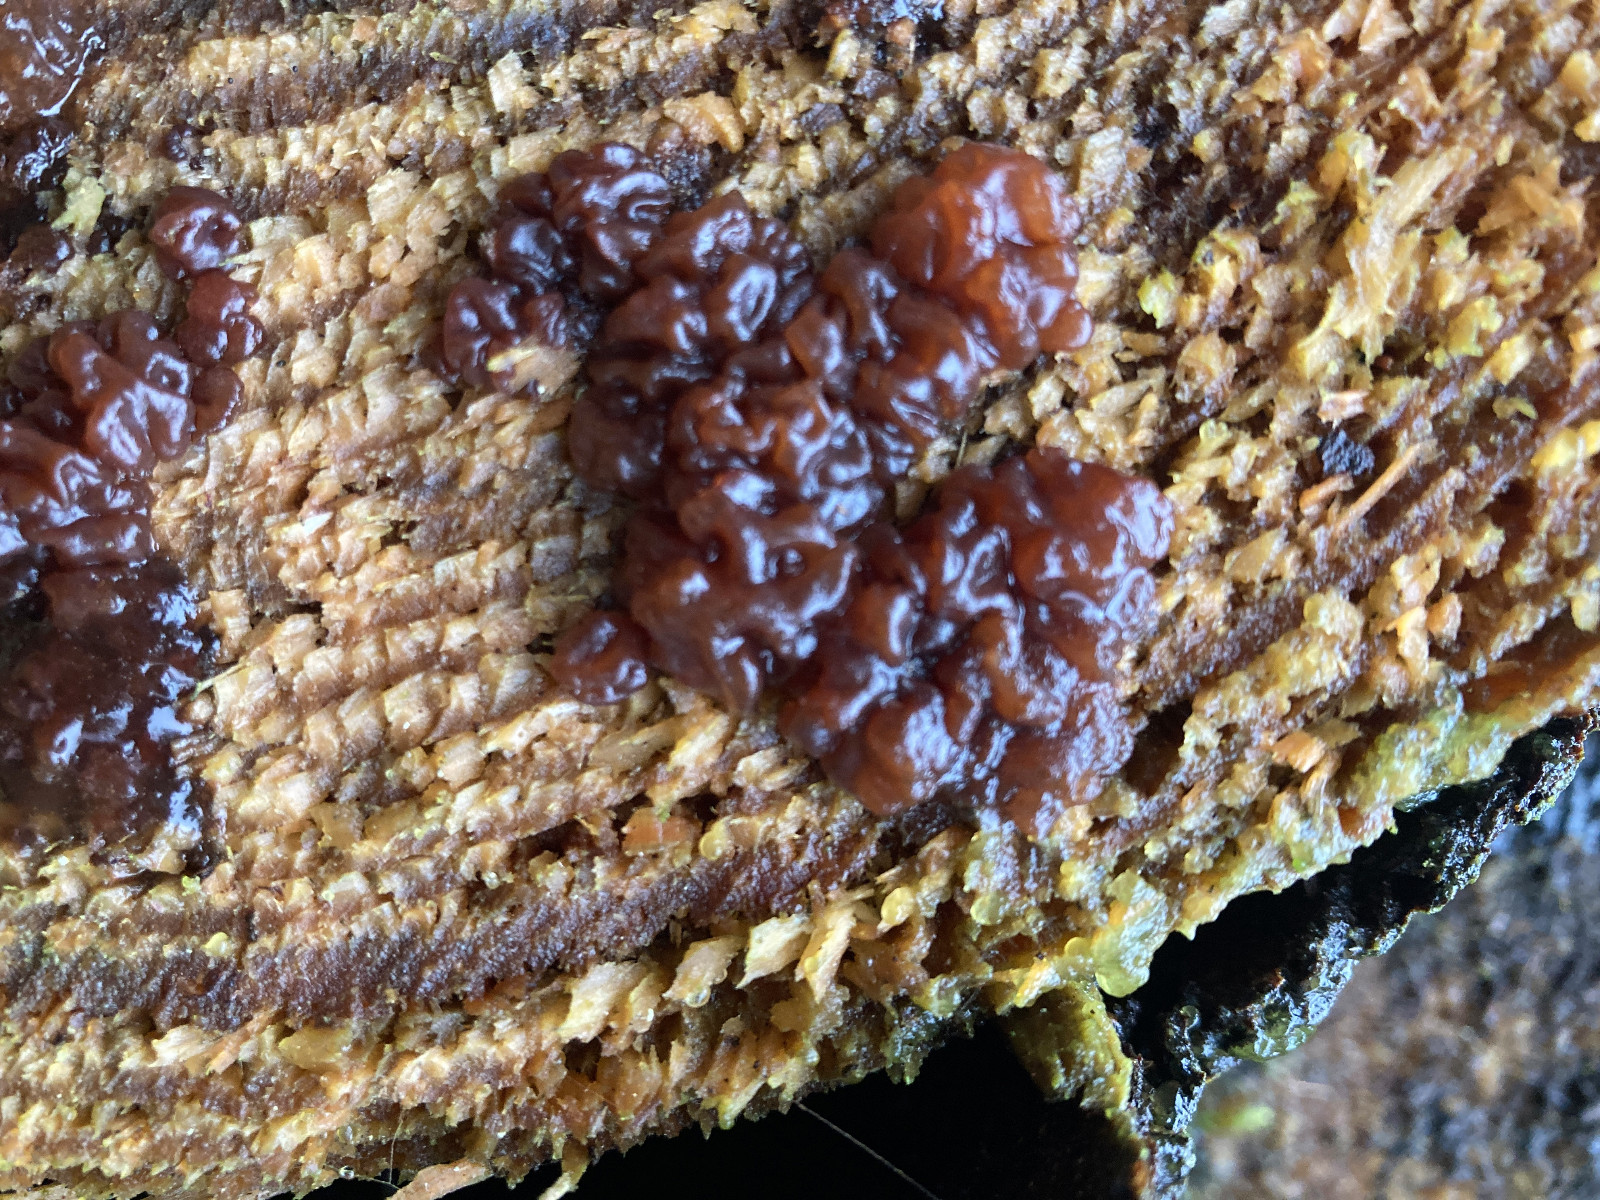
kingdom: Fungi
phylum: Basidiomycota
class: Agaricomycetes
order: Auriculariales
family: Auriculariaceae
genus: Exidia
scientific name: Exidia saccharina
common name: kandis-bævretop
